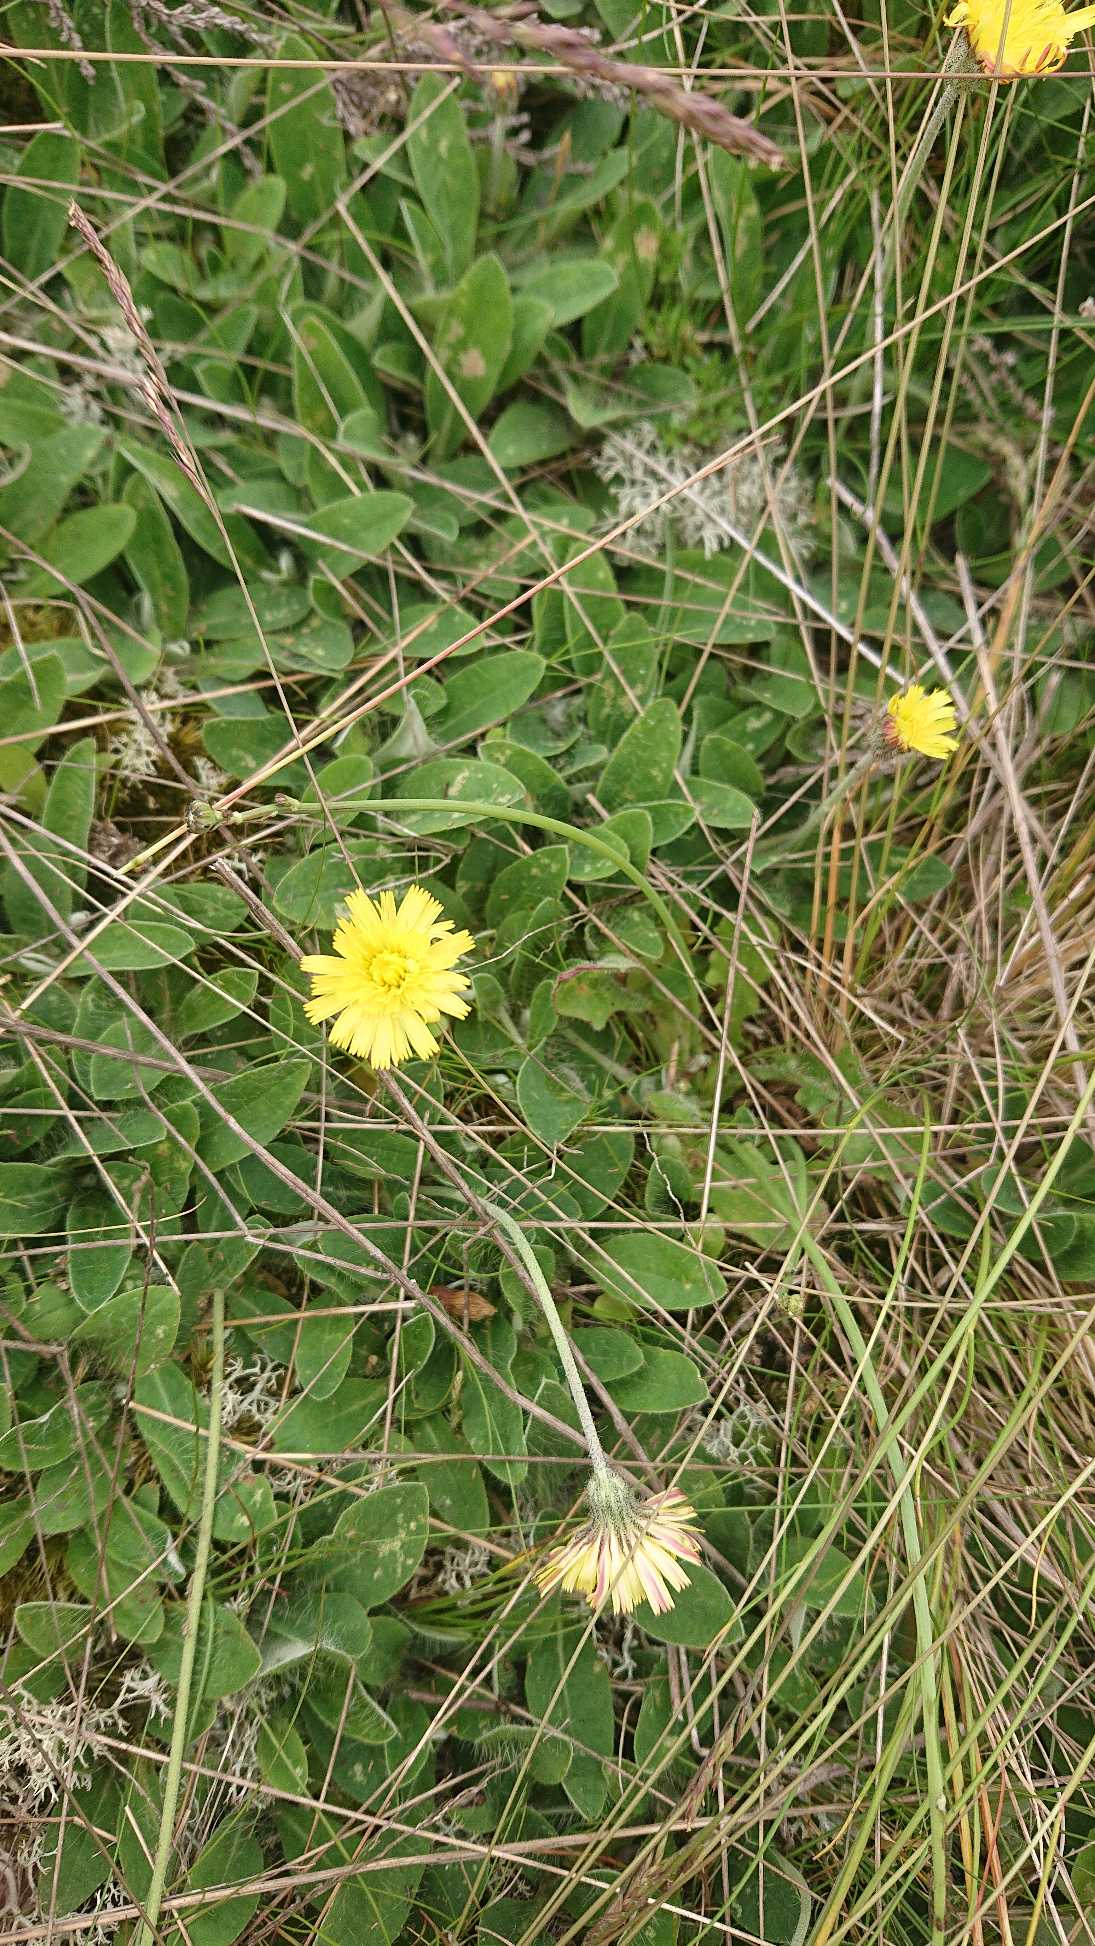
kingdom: Plantae
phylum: Tracheophyta
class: Magnoliopsida
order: Asterales
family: Asteraceae
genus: Pilosella
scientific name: Pilosella officinarum
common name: Håret høgeurt
